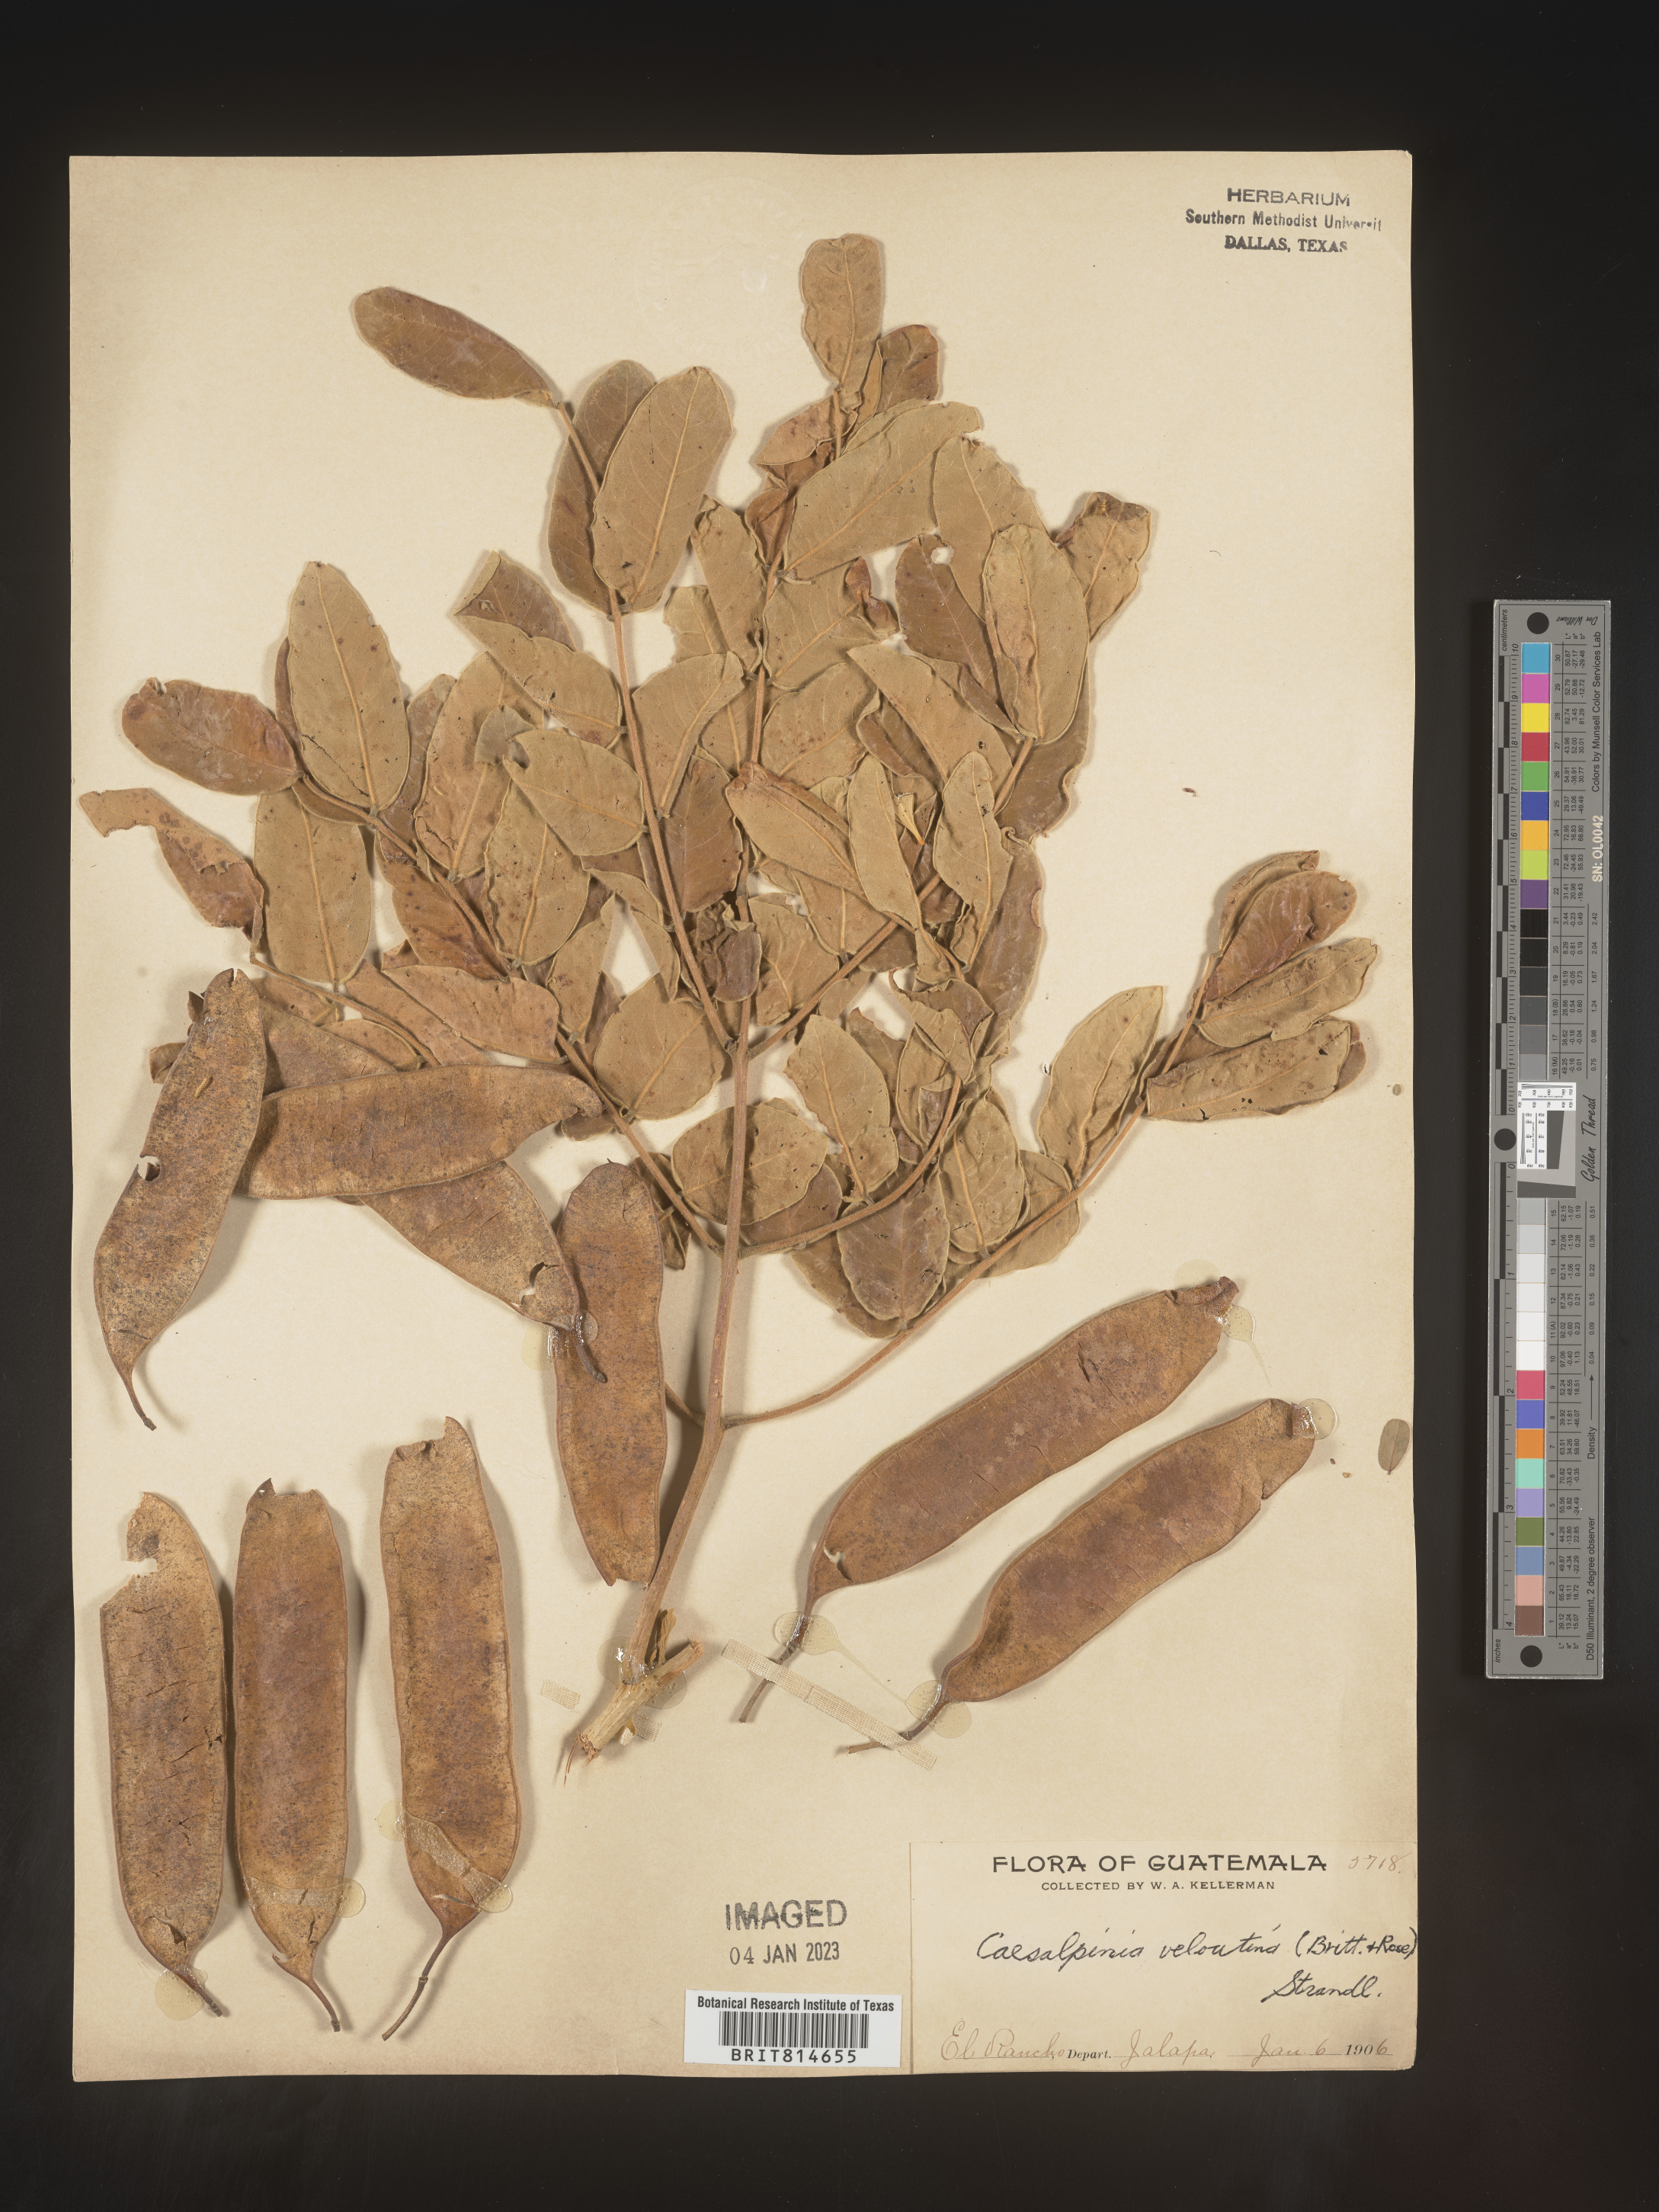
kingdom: Plantae
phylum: Tracheophyta
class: Magnoliopsida
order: Fabales
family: Fabaceae
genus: Caesalpinia
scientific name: Caesalpinia
